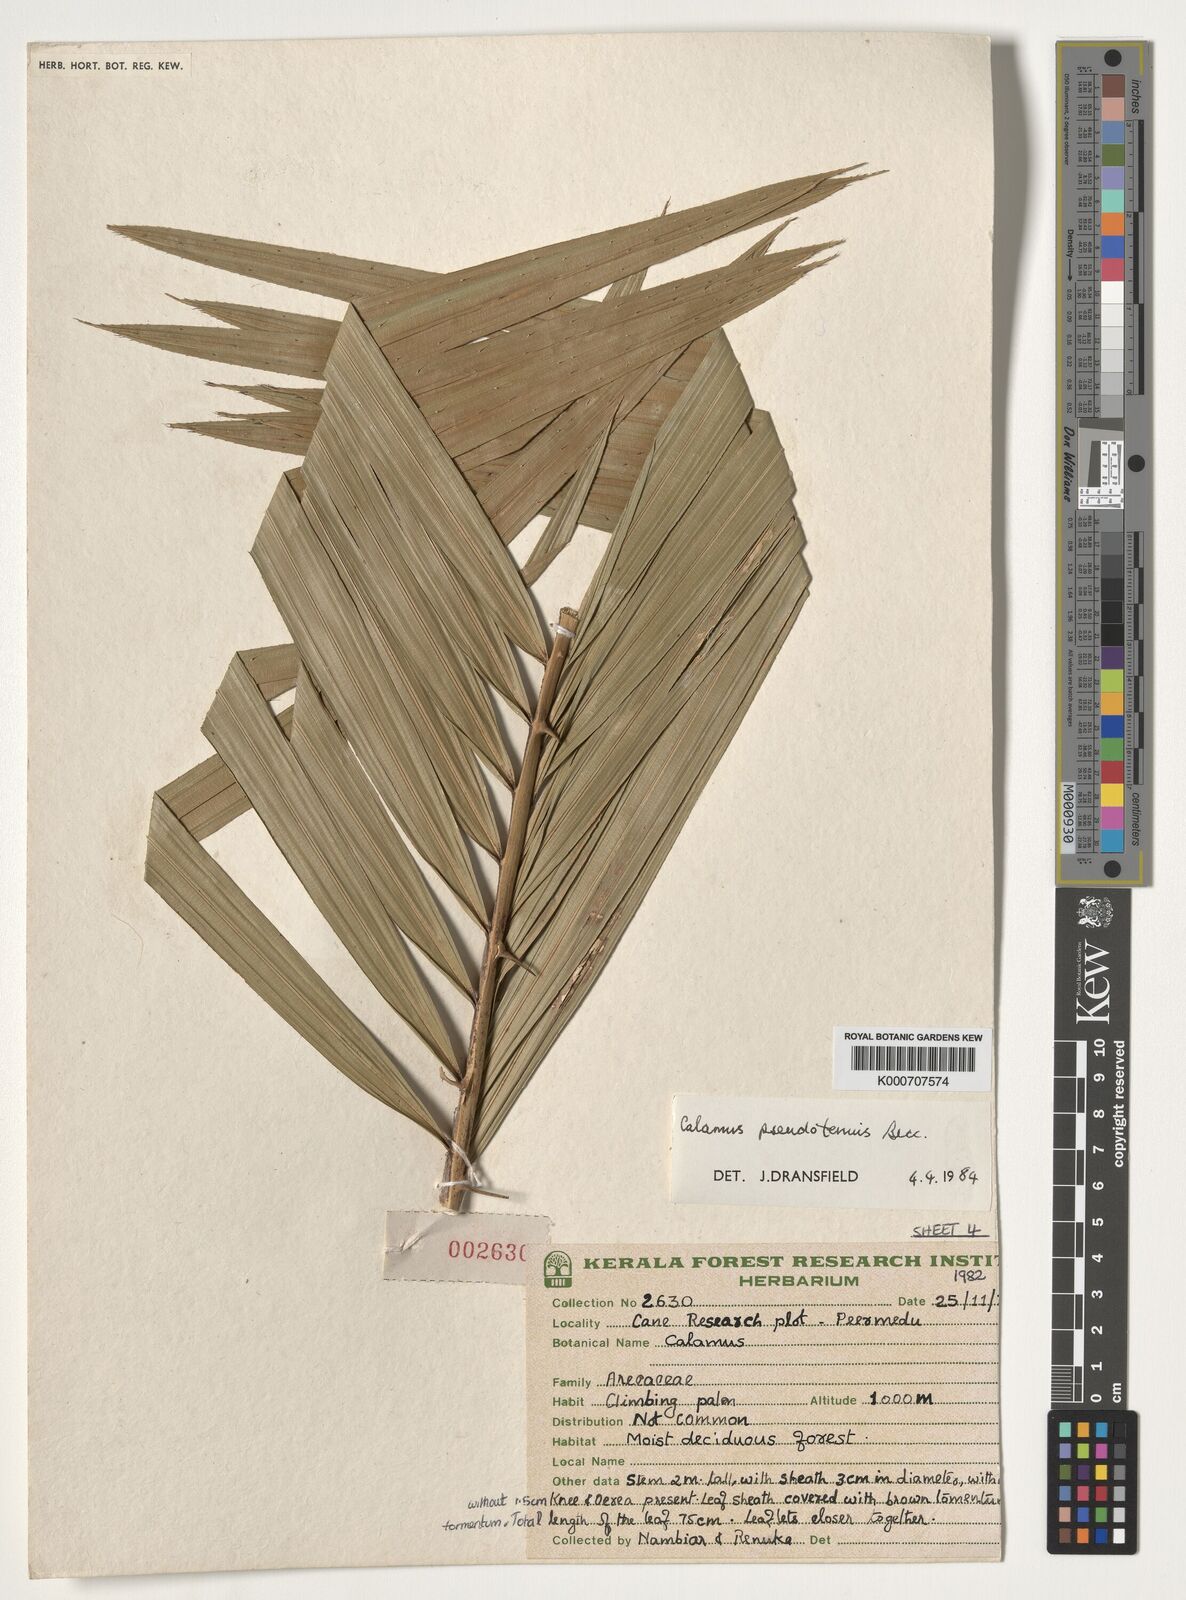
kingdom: Plantae
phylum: Tracheophyta
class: Liliopsida
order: Arecales
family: Arecaceae
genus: Calamus
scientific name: Calamus pseudotenuis
